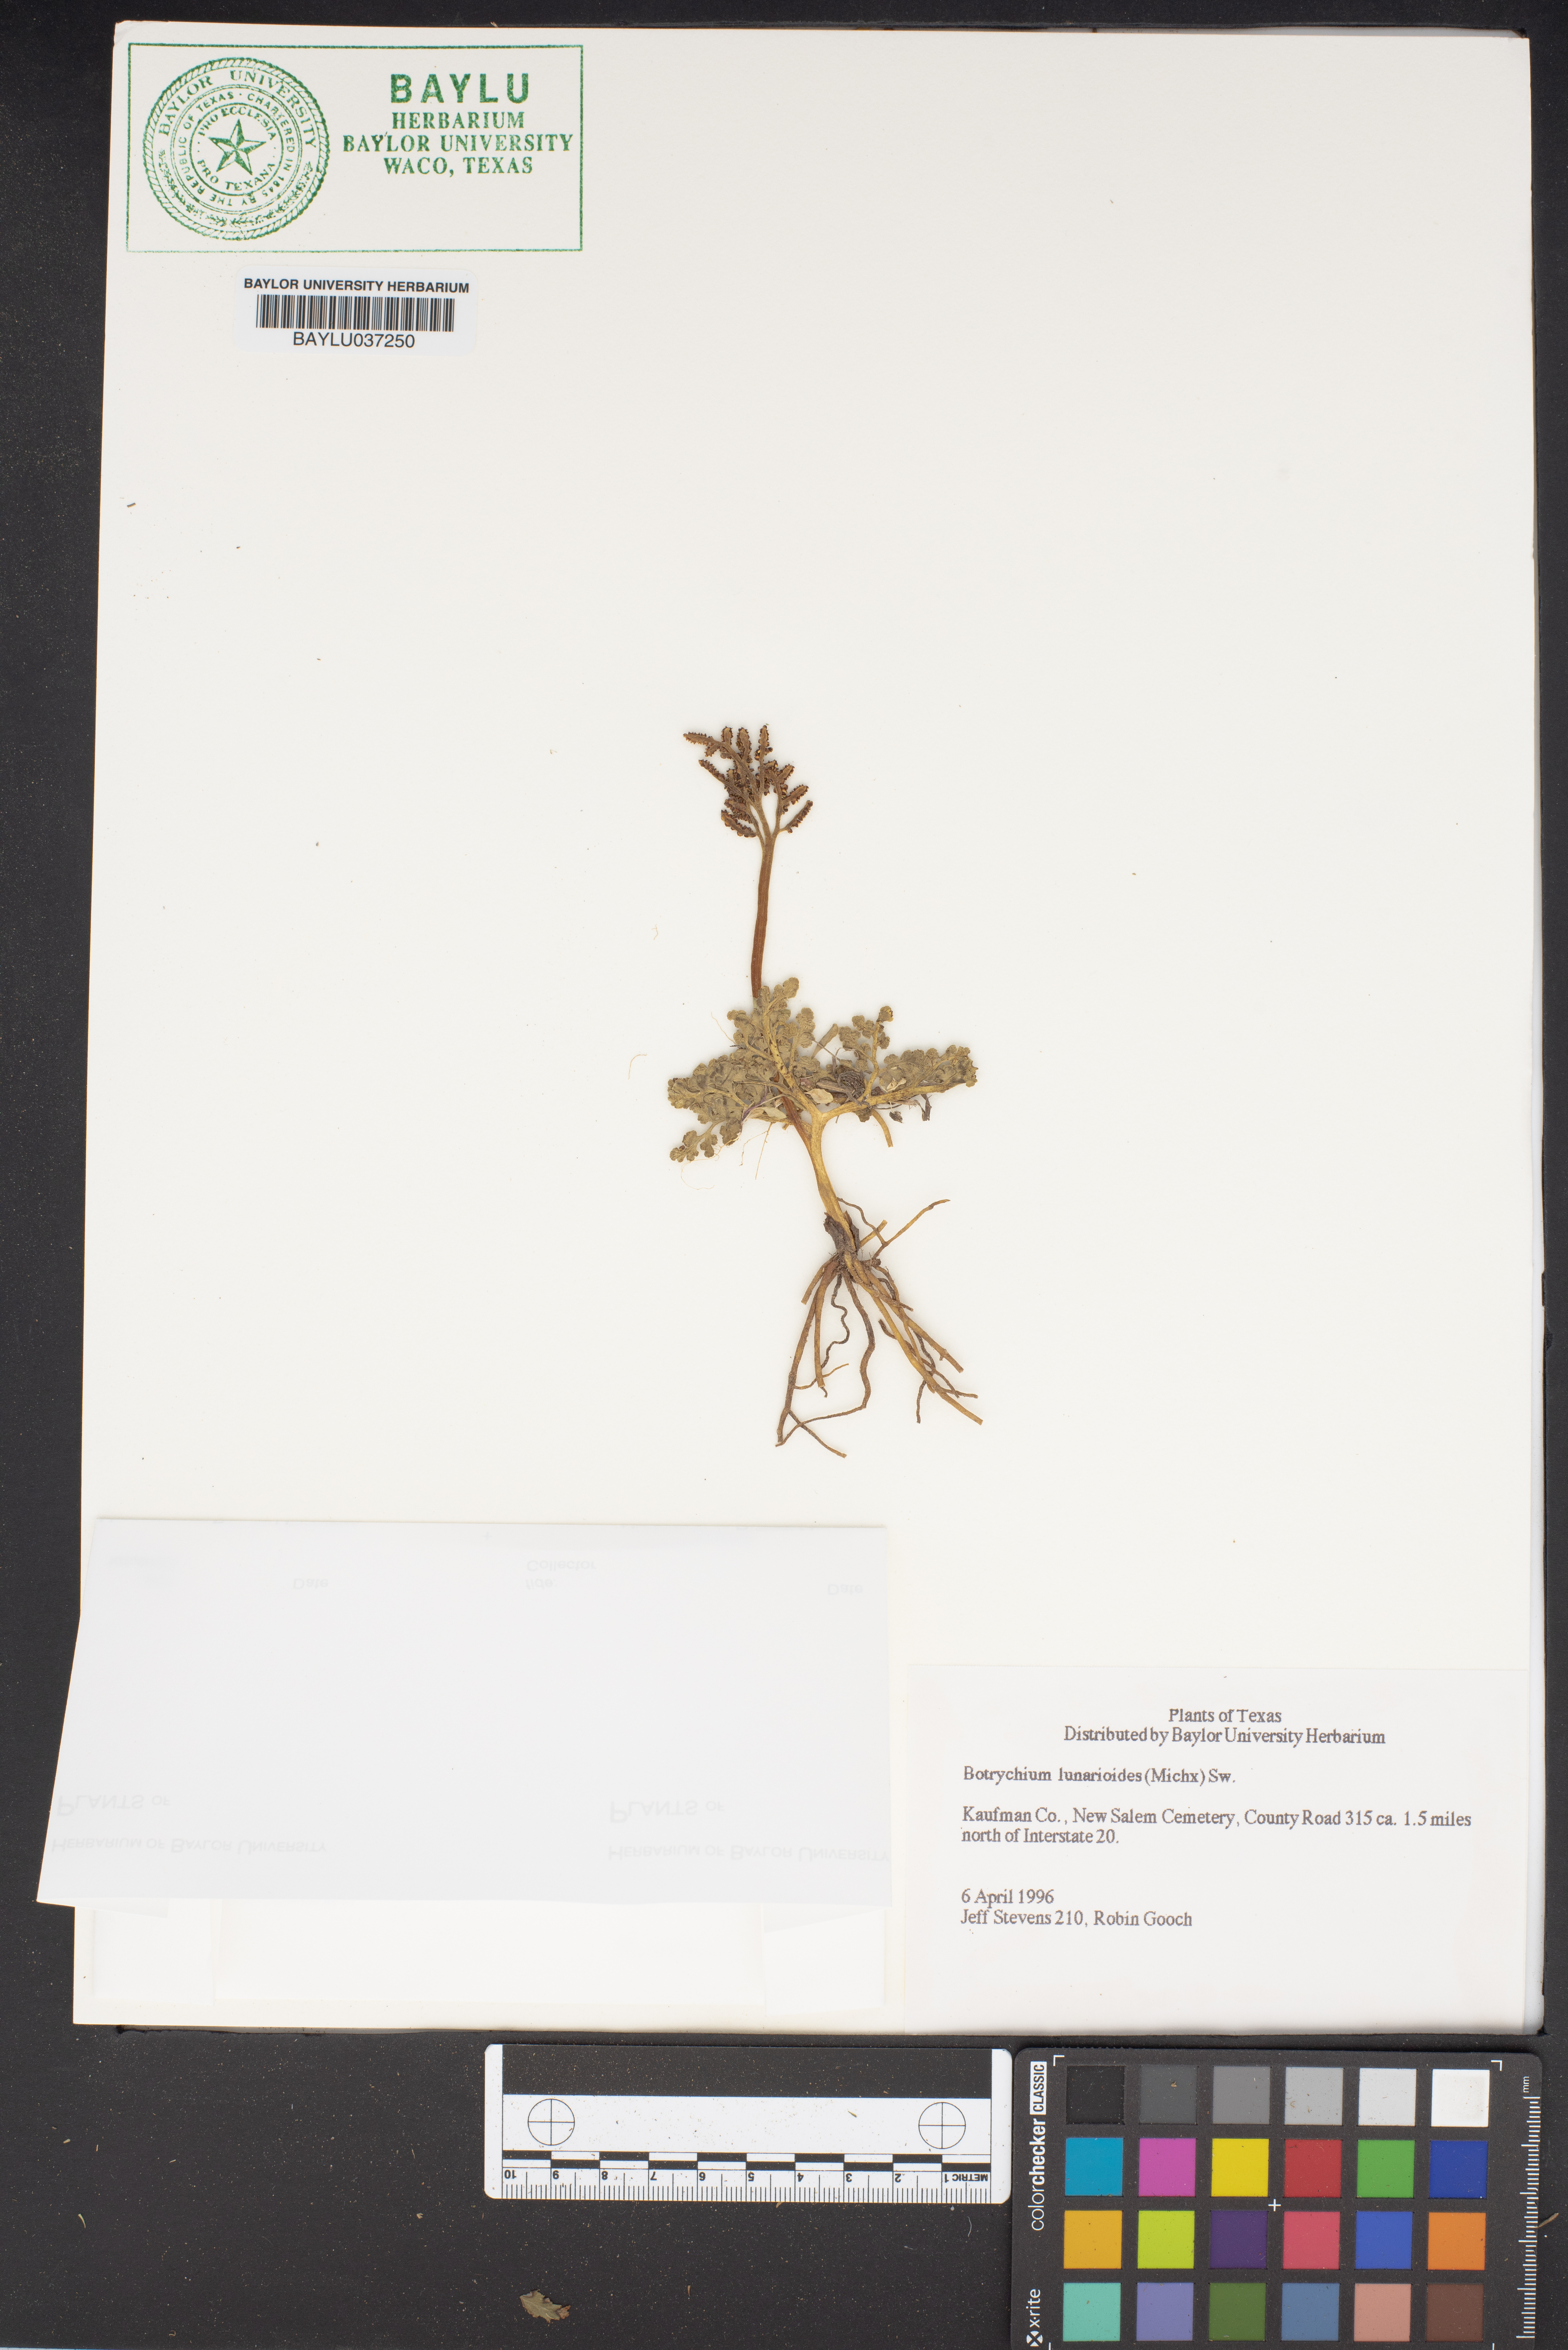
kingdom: Plantae
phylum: Tracheophyta
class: Polypodiopsida
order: Ophioglossales
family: Ophioglossaceae
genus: Sceptridium
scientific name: Sceptridium lunarioides
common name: Prostrate grapefern
